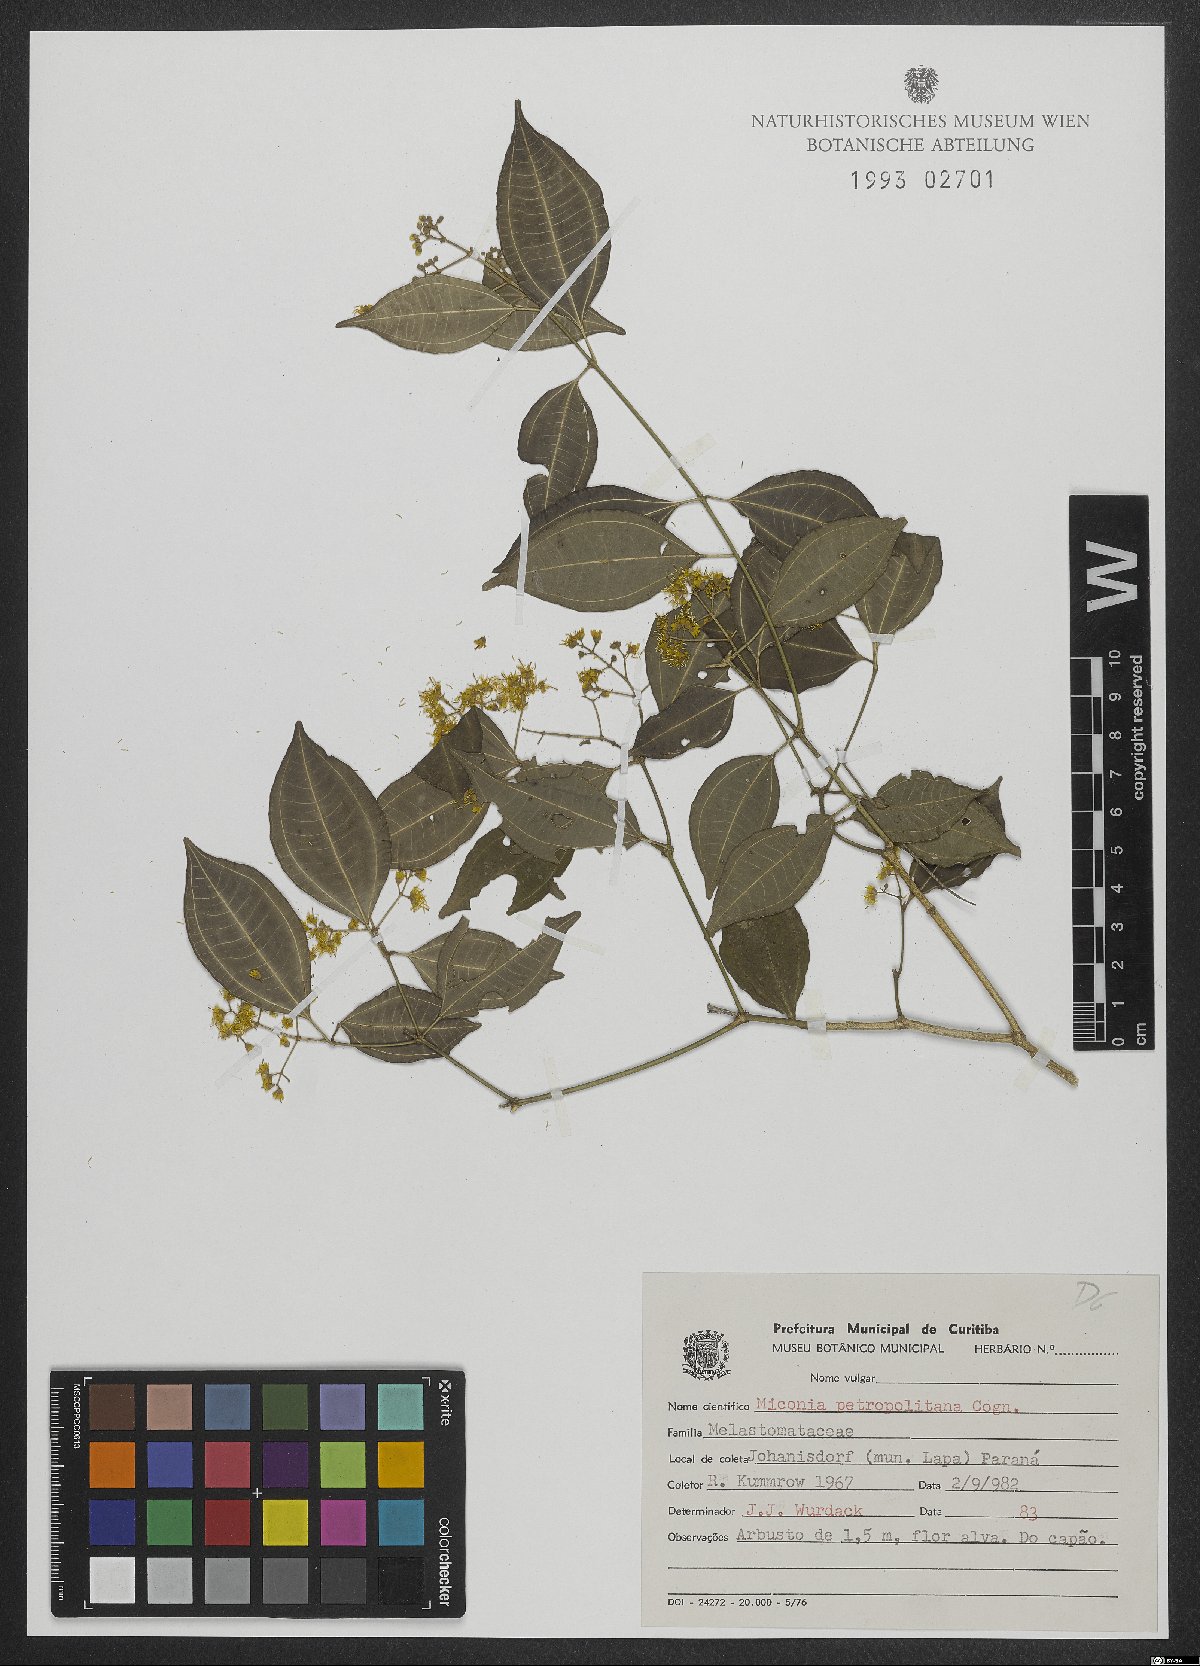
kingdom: Plantae
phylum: Tracheophyta
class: Magnoliopsida
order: Myrtales
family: Melastomataceae
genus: Miconia
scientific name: Miconia petropolitana
